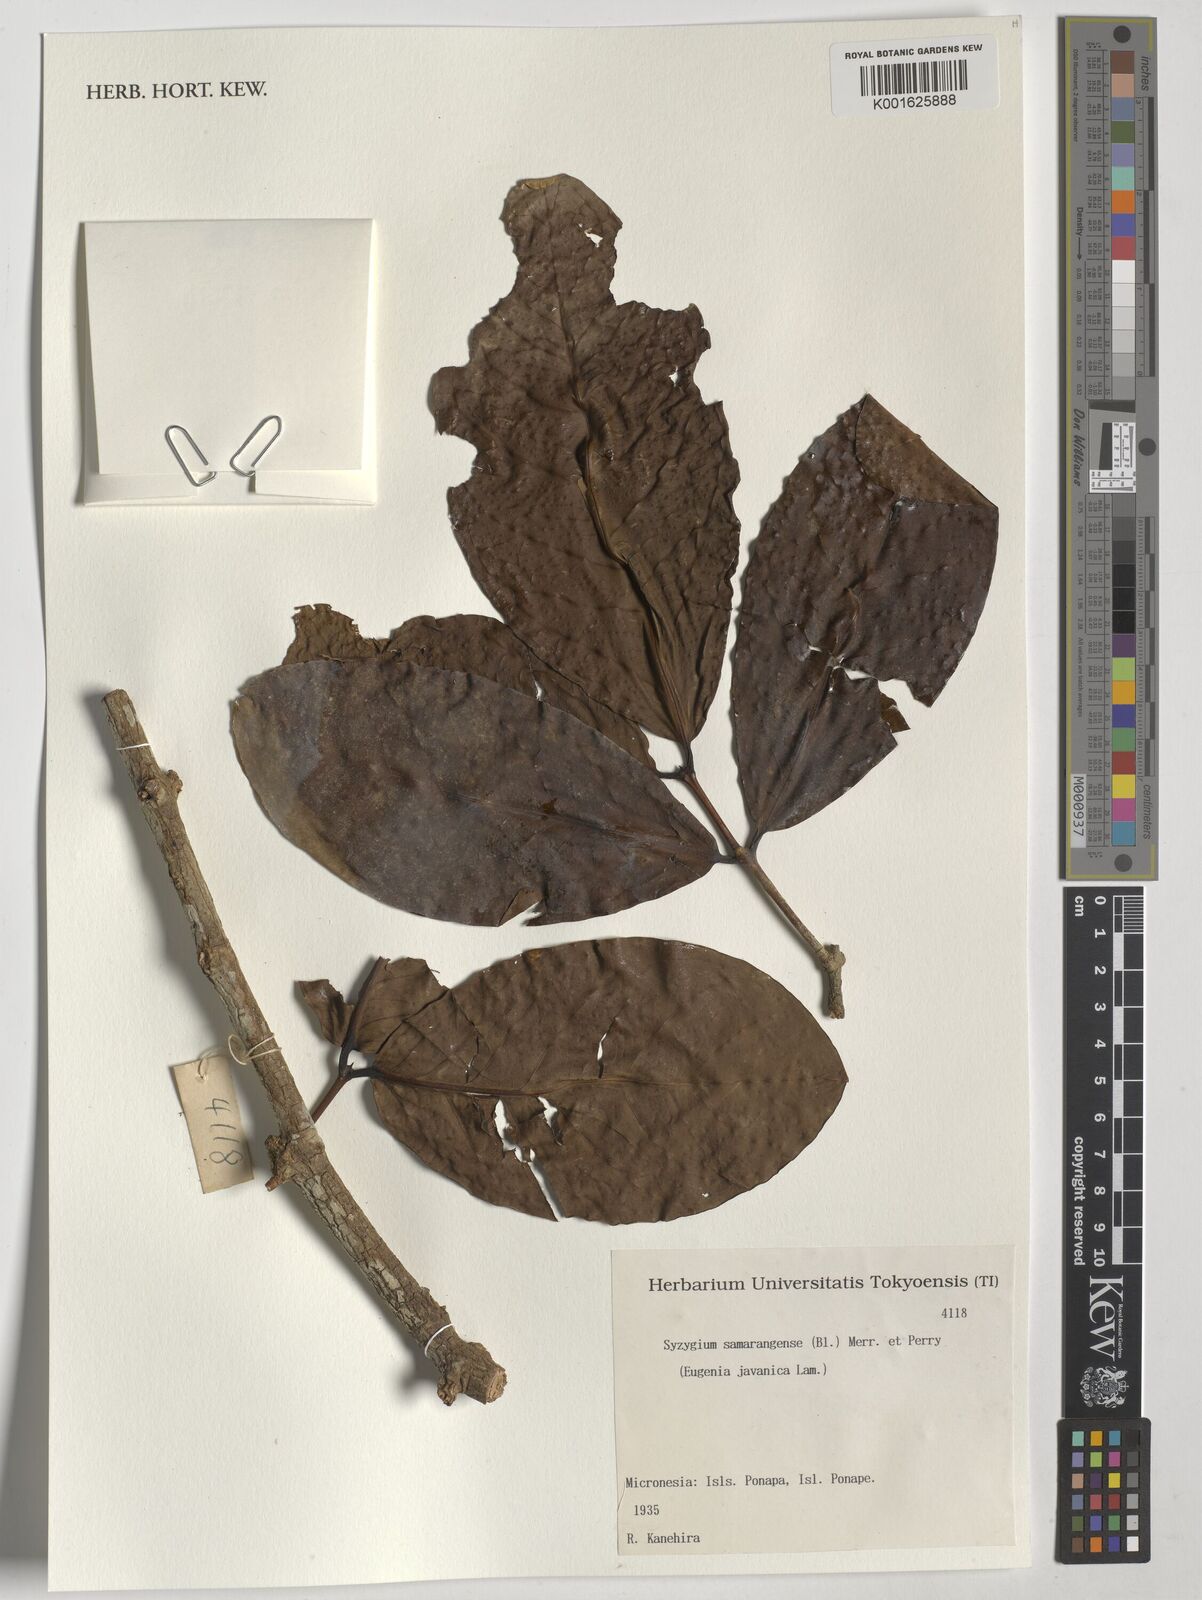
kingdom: Plantae
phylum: Tracheophyta
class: Magnoliopsida
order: Myrtales
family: Myrtaceae
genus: Syzygium
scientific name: Syzygium samarangense
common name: Semarang rose-apple
